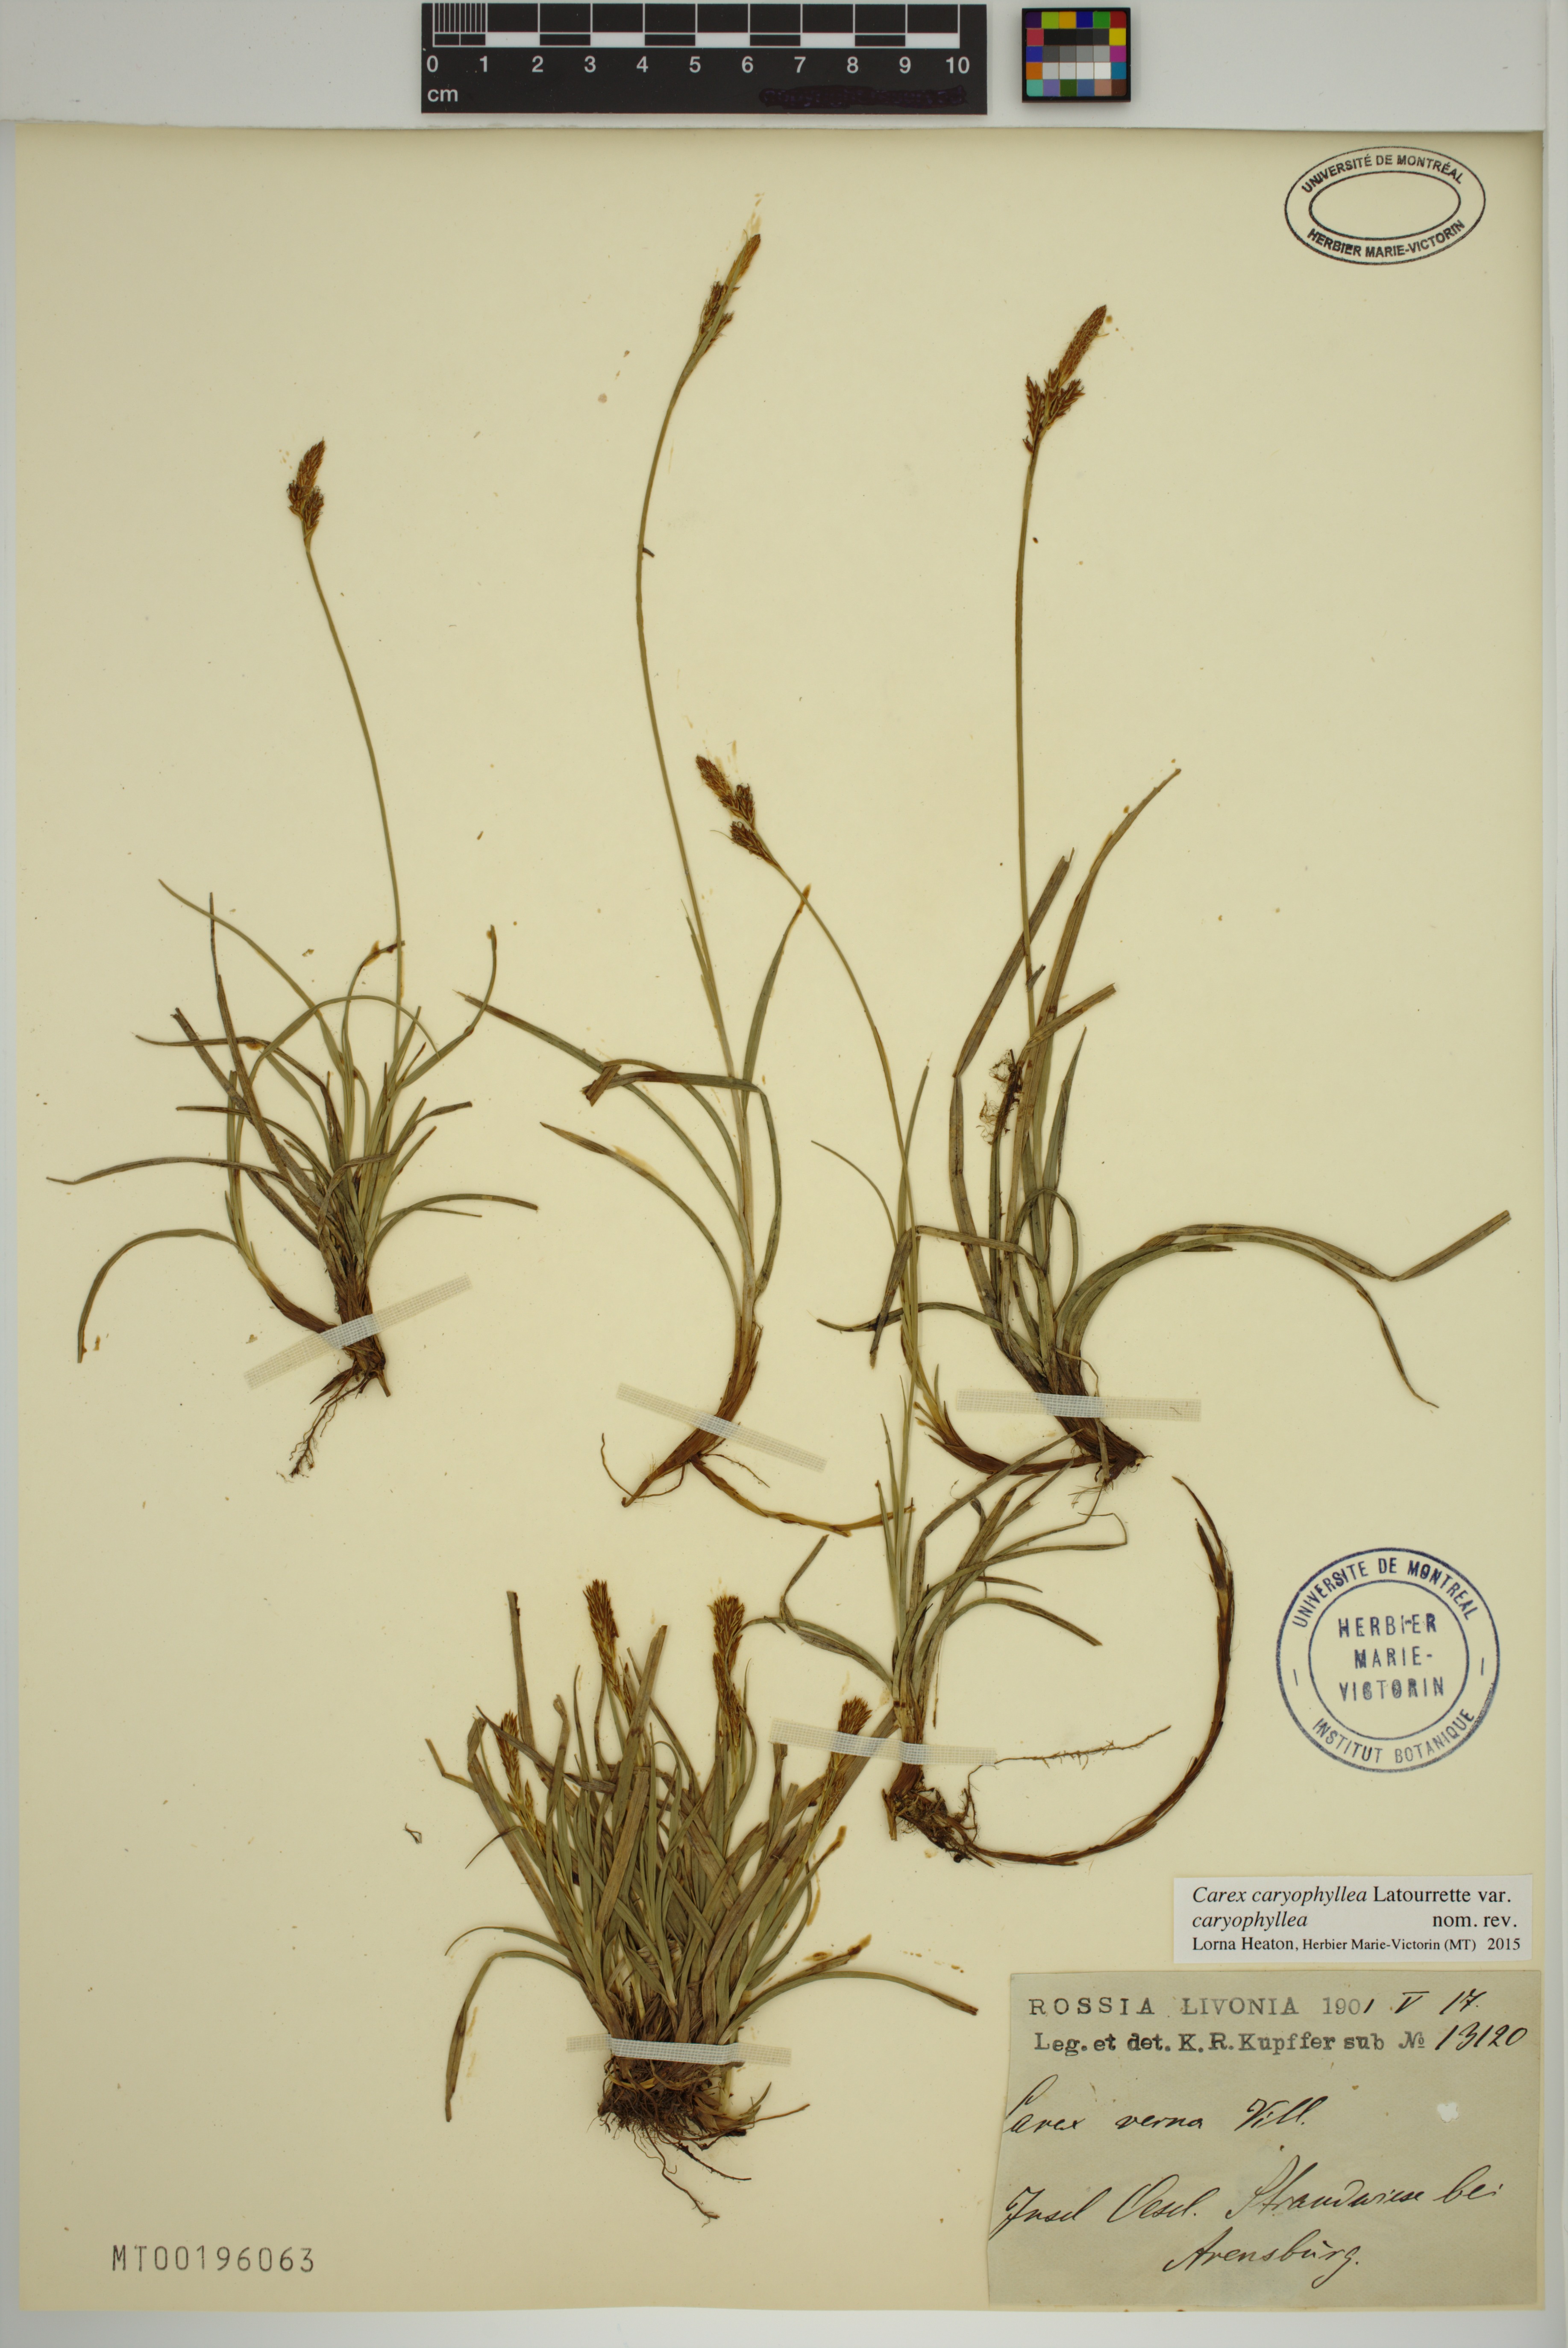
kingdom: Plantae
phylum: Tracheophyta
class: Liliopsida
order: Poales
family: Cyperaceae
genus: Carex
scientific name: Carex caryophyllea
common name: Spring sedge
